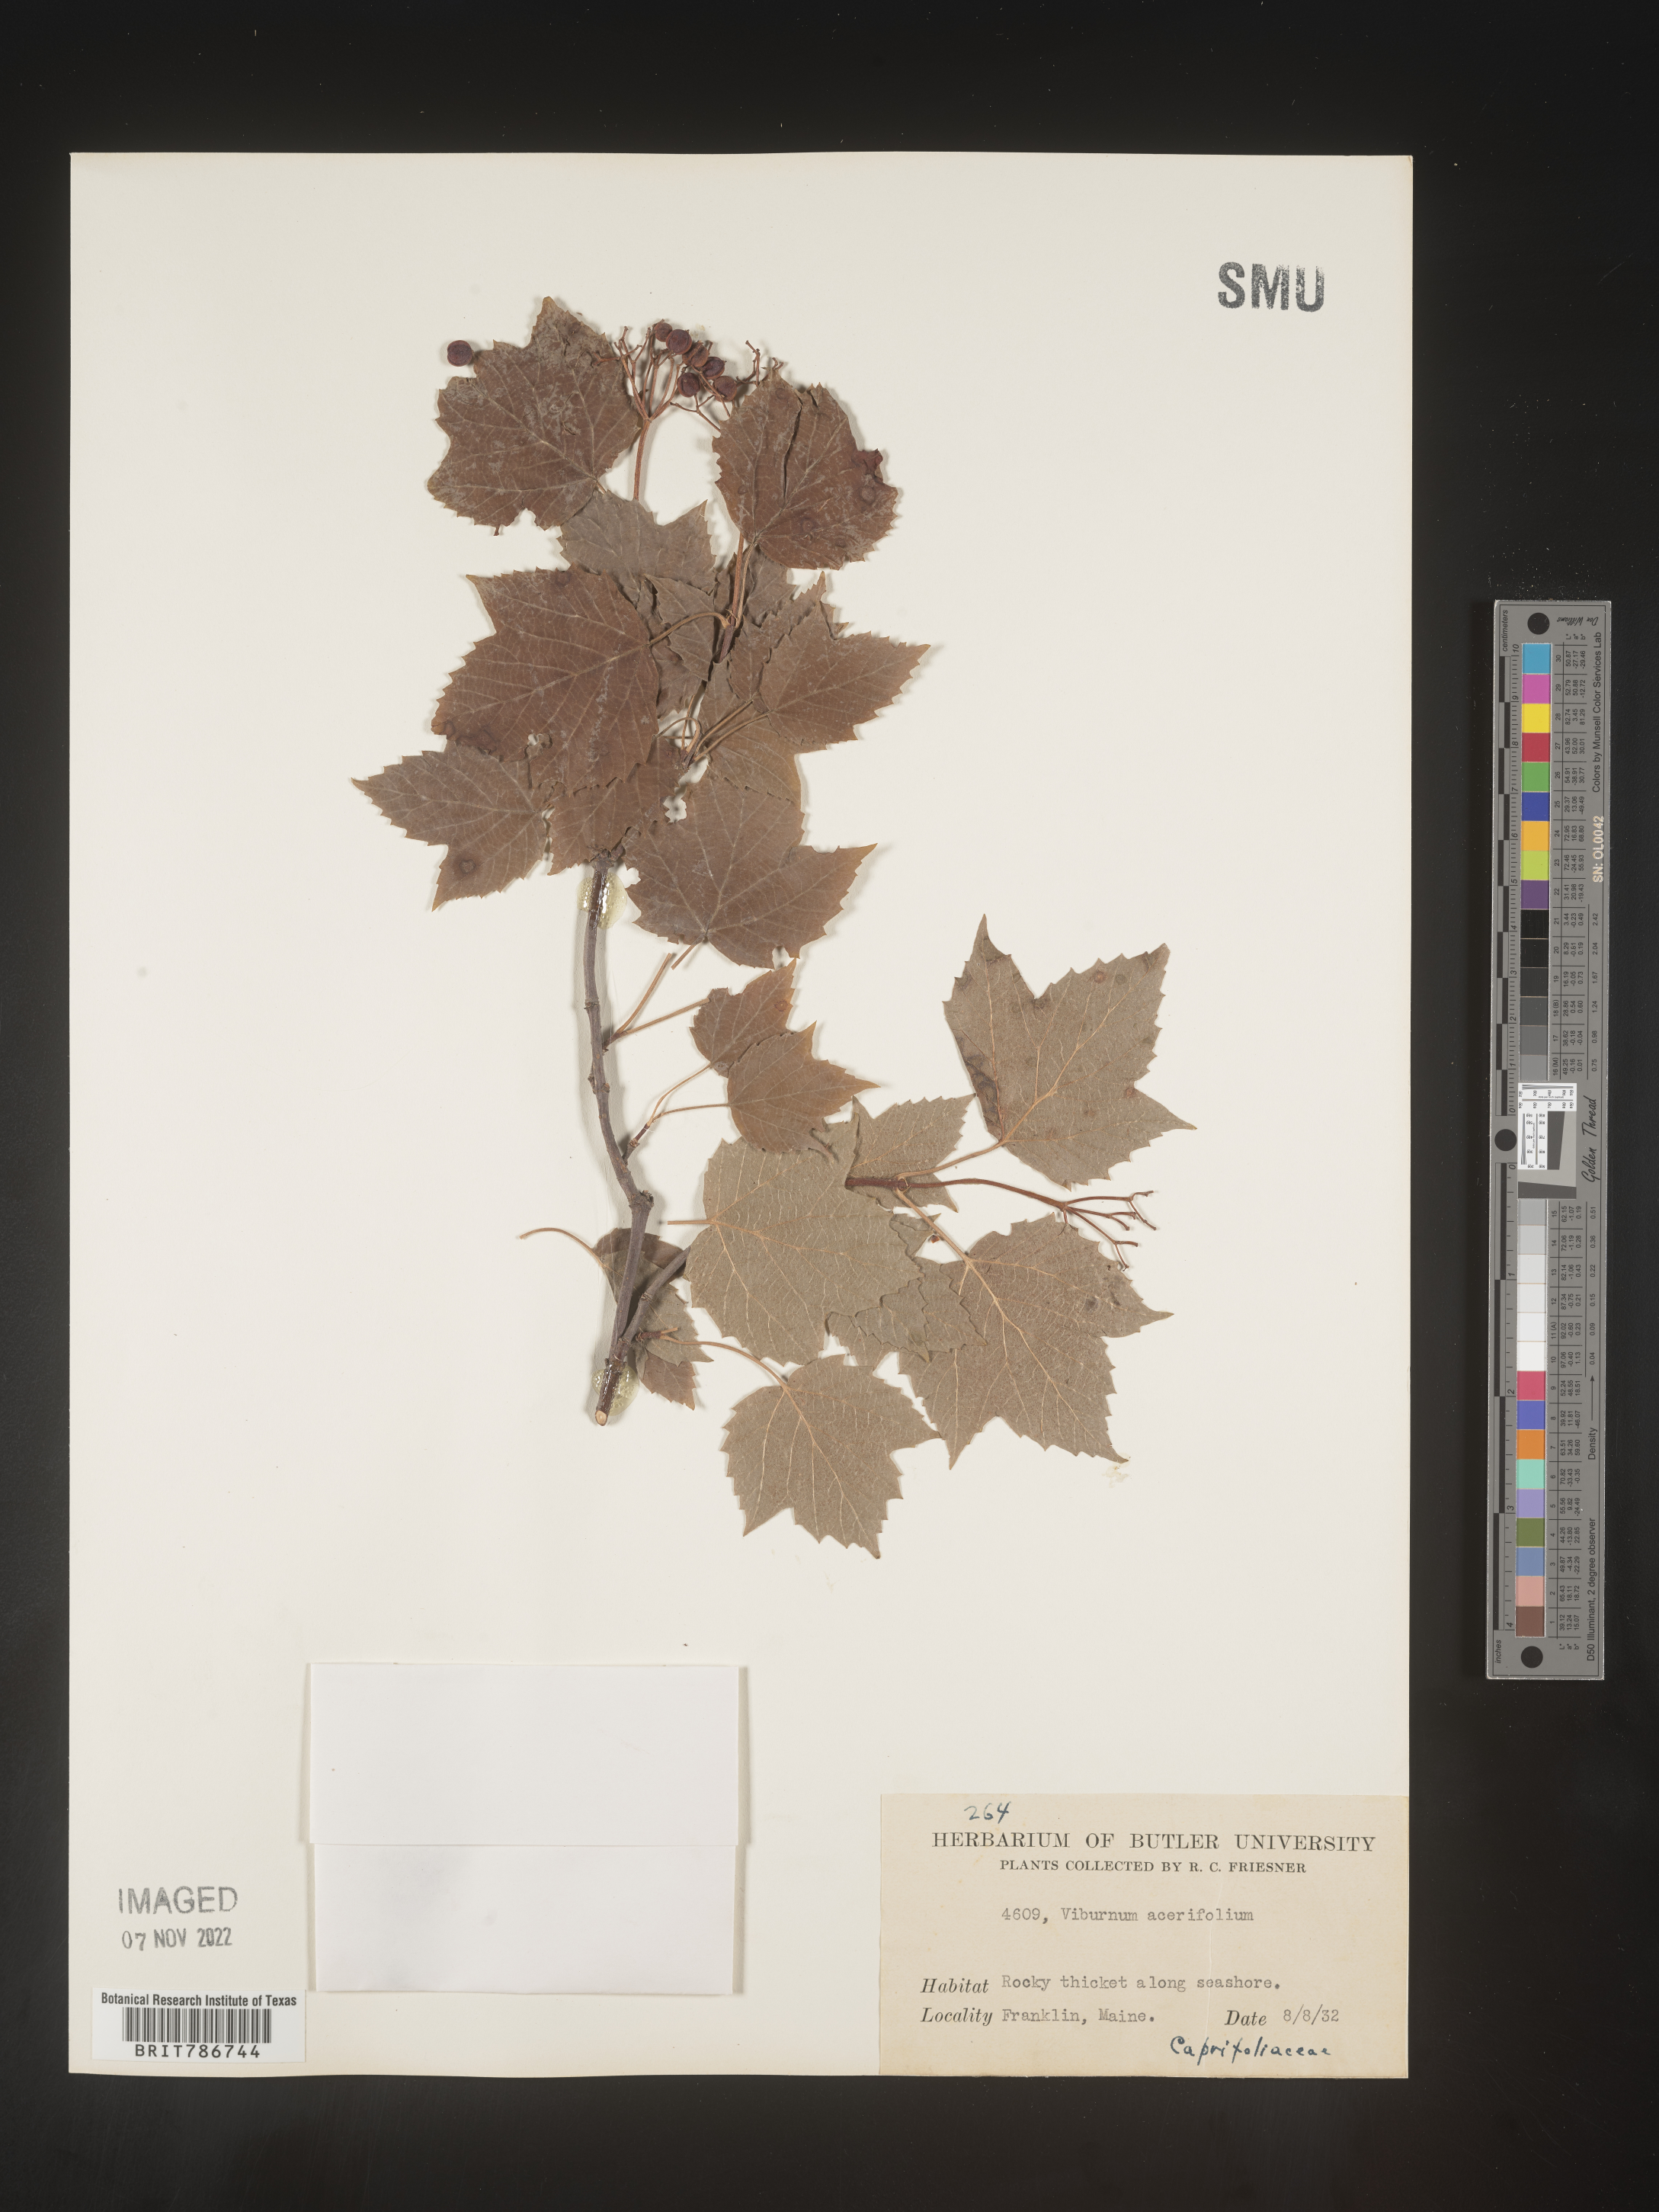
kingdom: Plantae
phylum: Tracheophyta
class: Magnoliopsida
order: Dipsacales
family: Viburnaceae
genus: Viburnum
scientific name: Viburnum acerifolium
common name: Dockmackie
